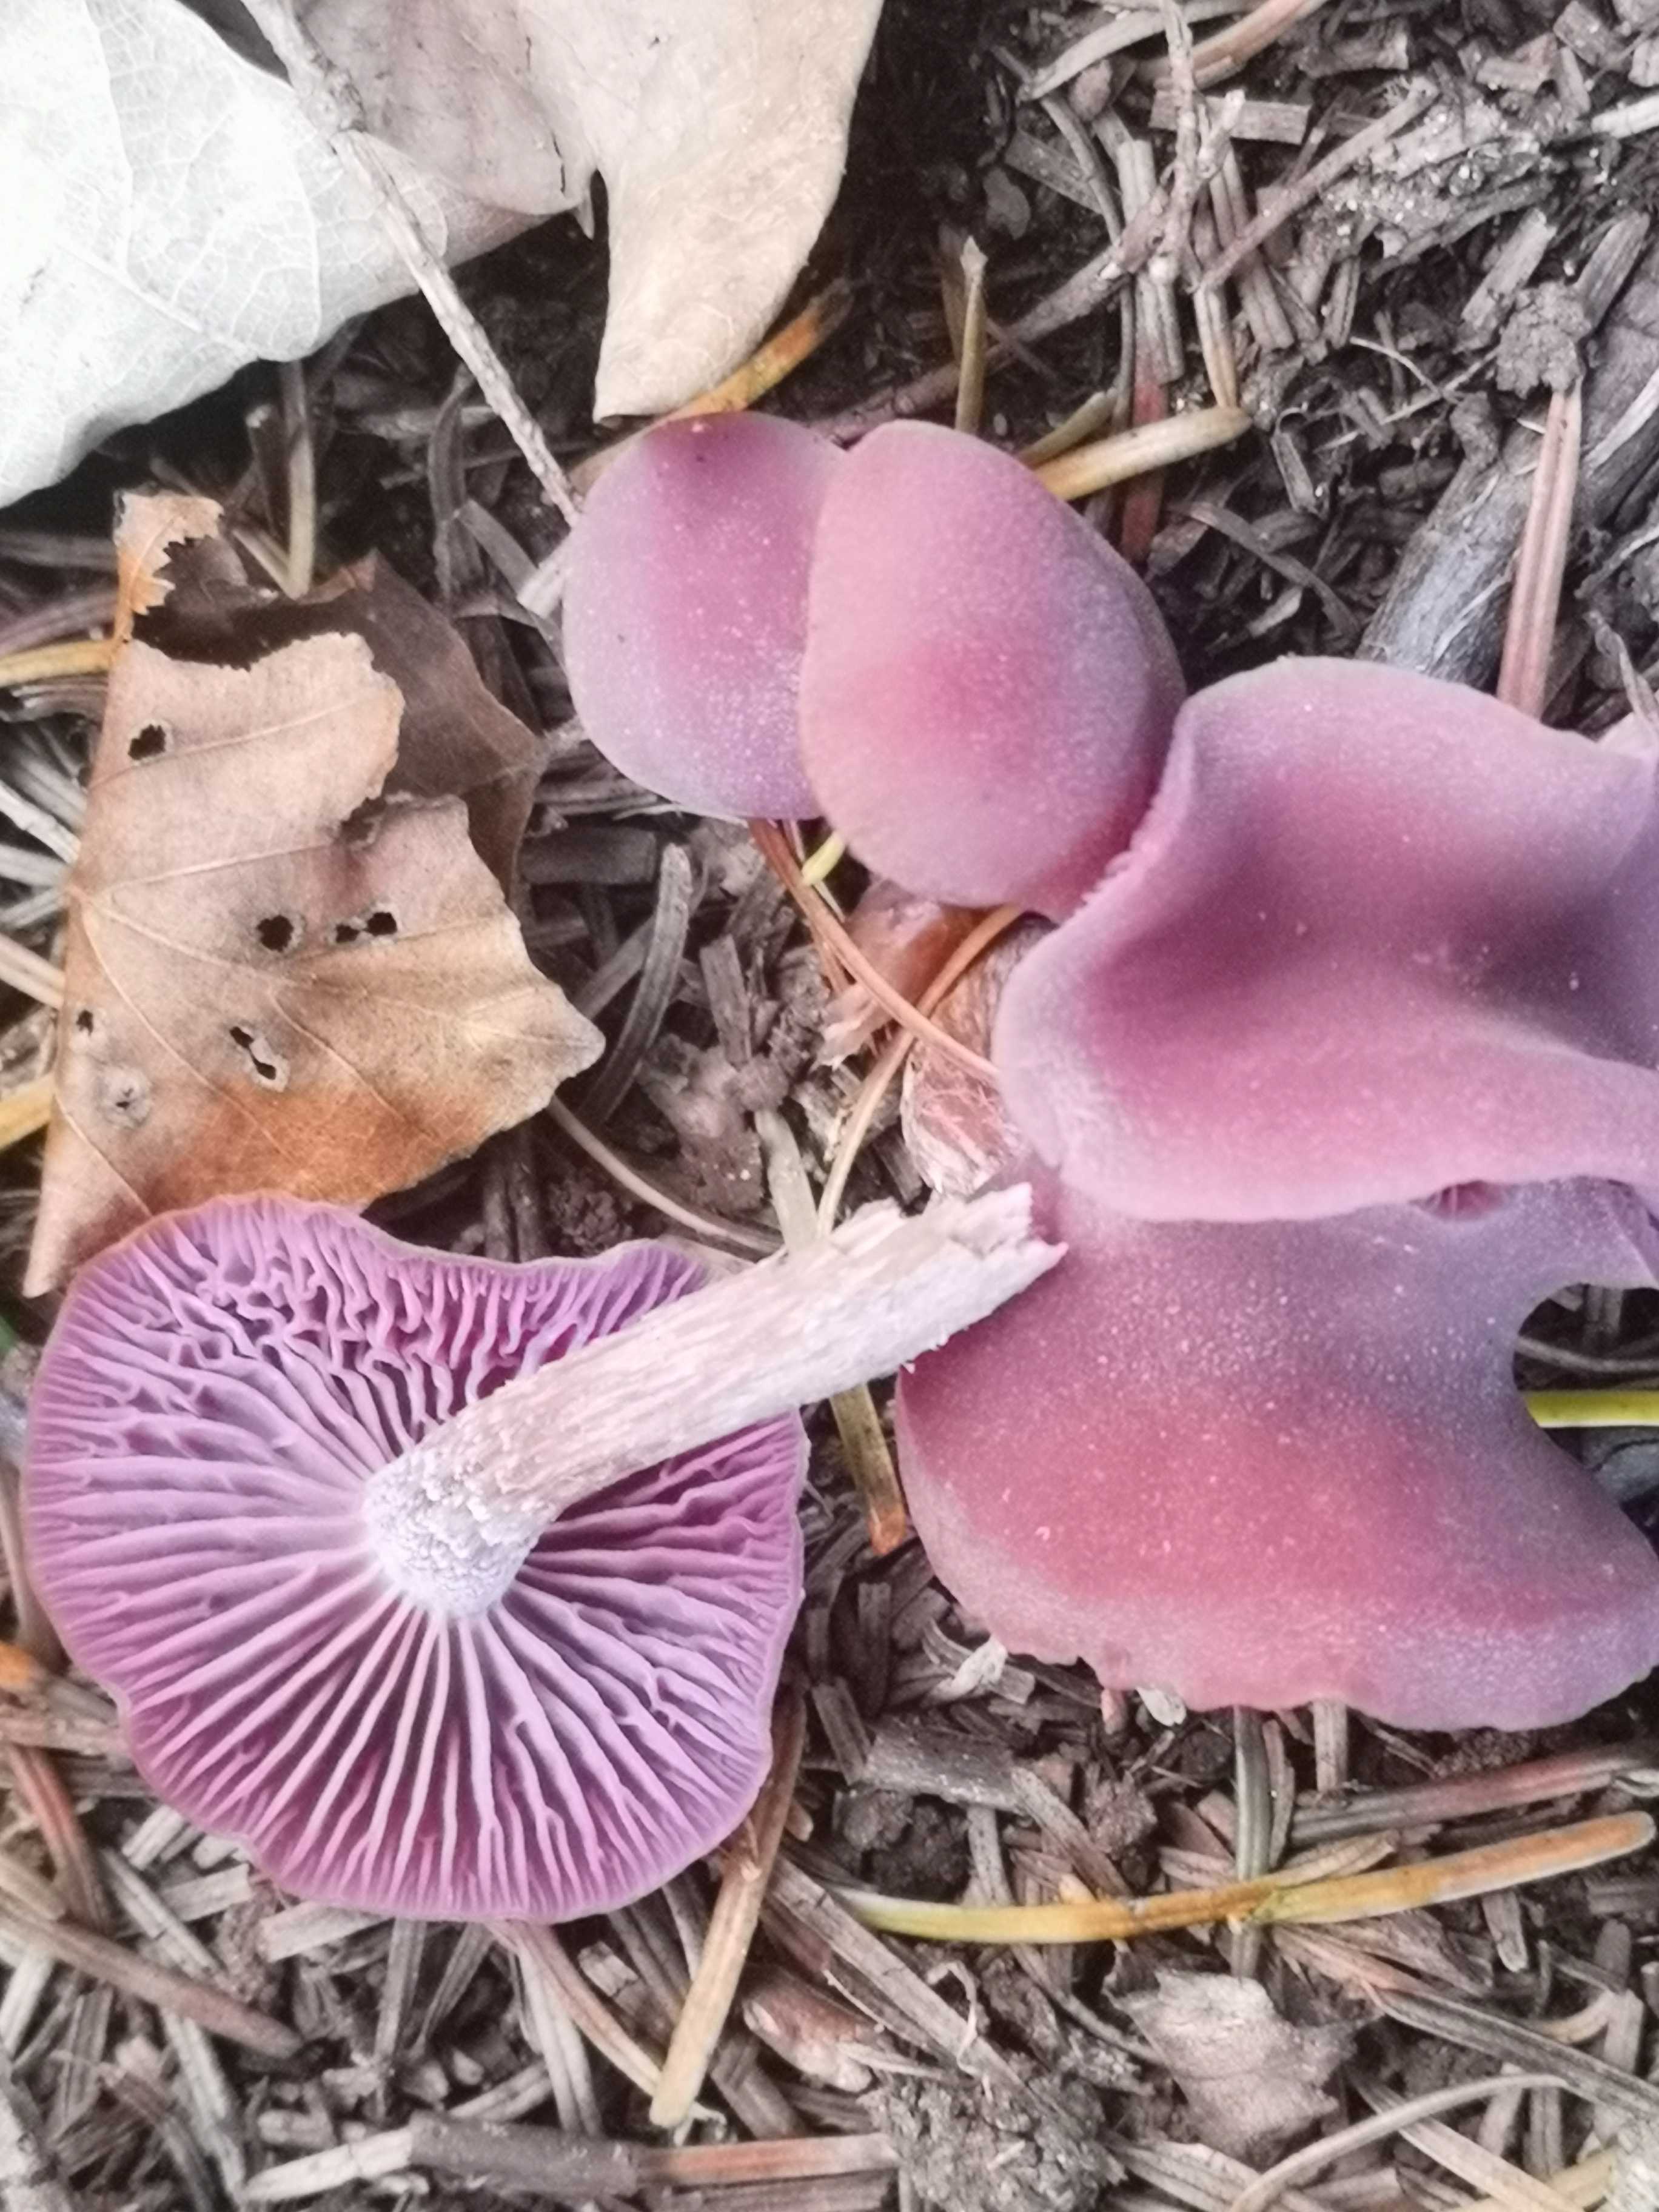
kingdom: Fungi
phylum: Basidiomycota
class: Agaricomycetes
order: Agaricales
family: Hydnangiaceae
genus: Laccaria
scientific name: Laccaria amethystina
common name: violet ametysthat
